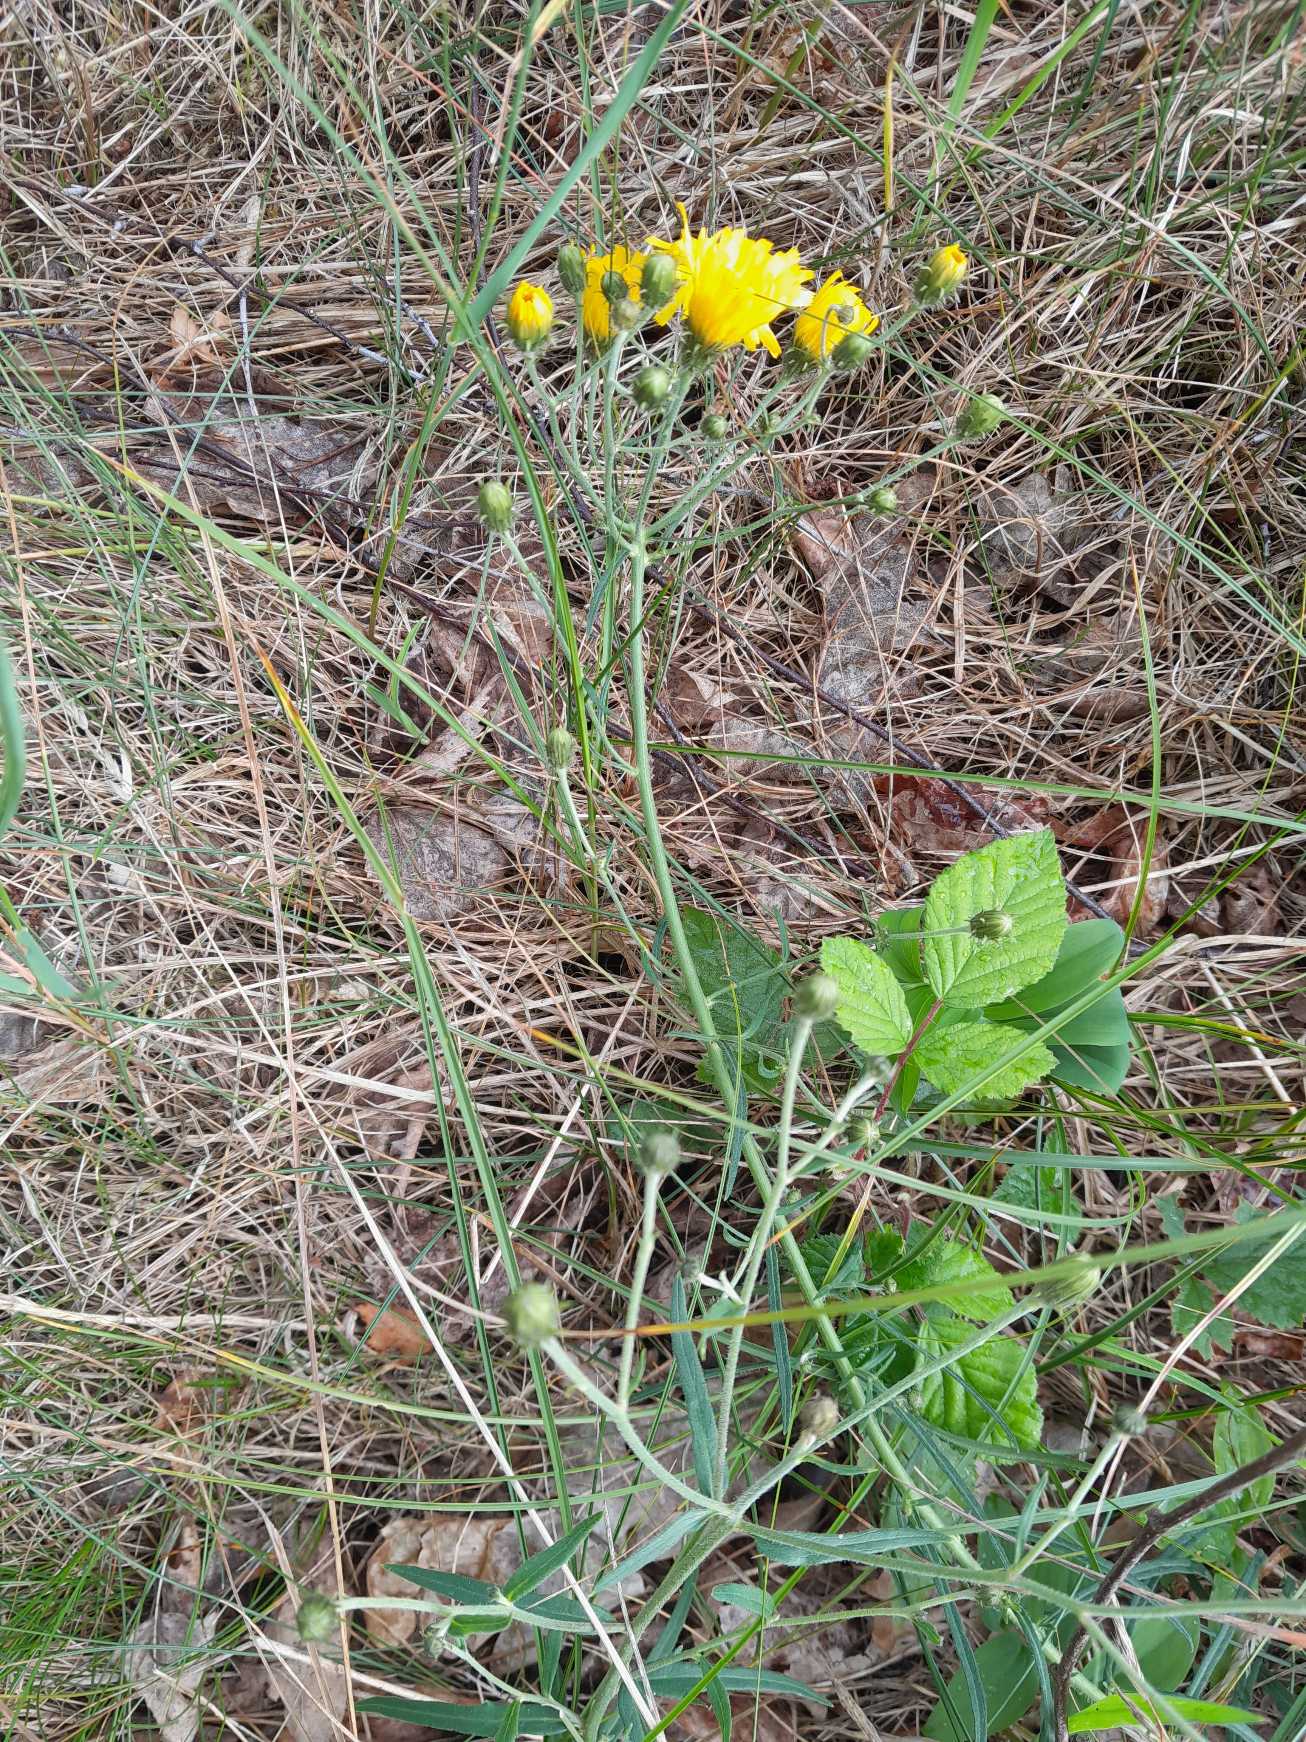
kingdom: Plantae
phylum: Tracheophyta
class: Magnoliopsida
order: Asterales
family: Asteraceae
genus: Hieracium
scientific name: Hieracium umbellatum
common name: Smalbladet høgeurt
